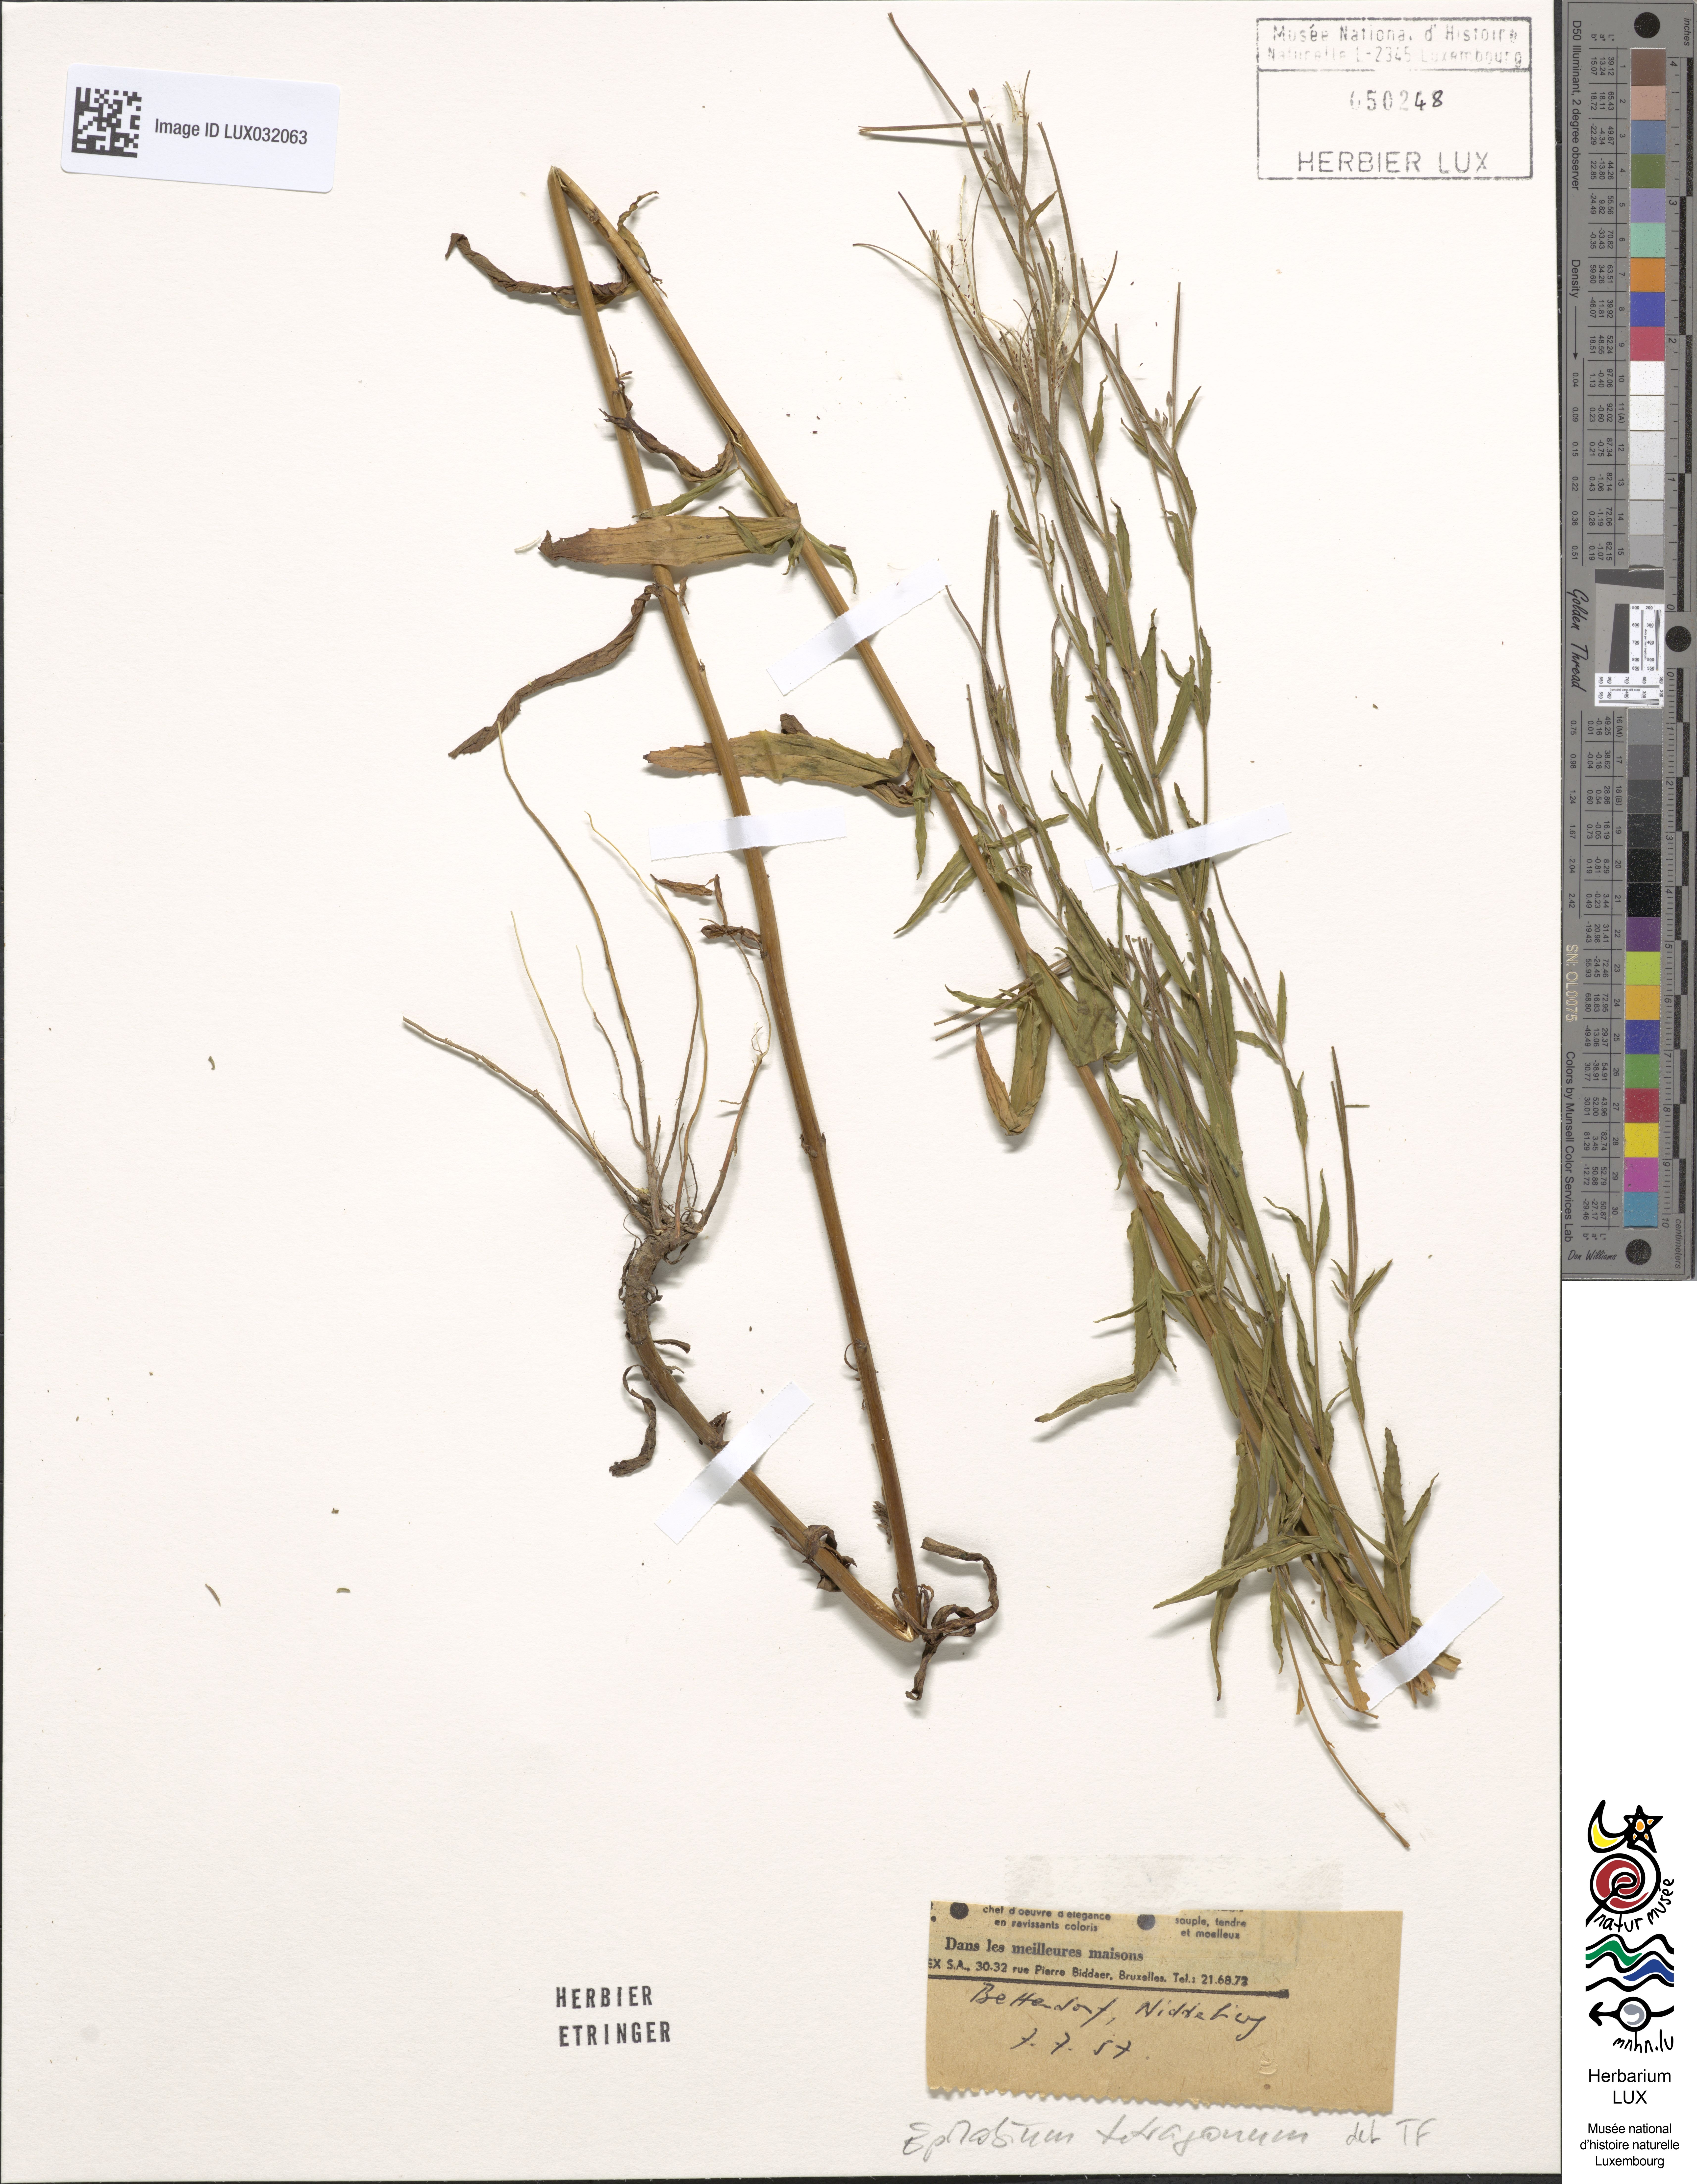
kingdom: Plantae
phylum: Tracheophyta
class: Magnoliopsida
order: Myrtales
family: Onagraceae
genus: Epilobium
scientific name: Epilobium tetragonum
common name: Square-stemmed willowherb
